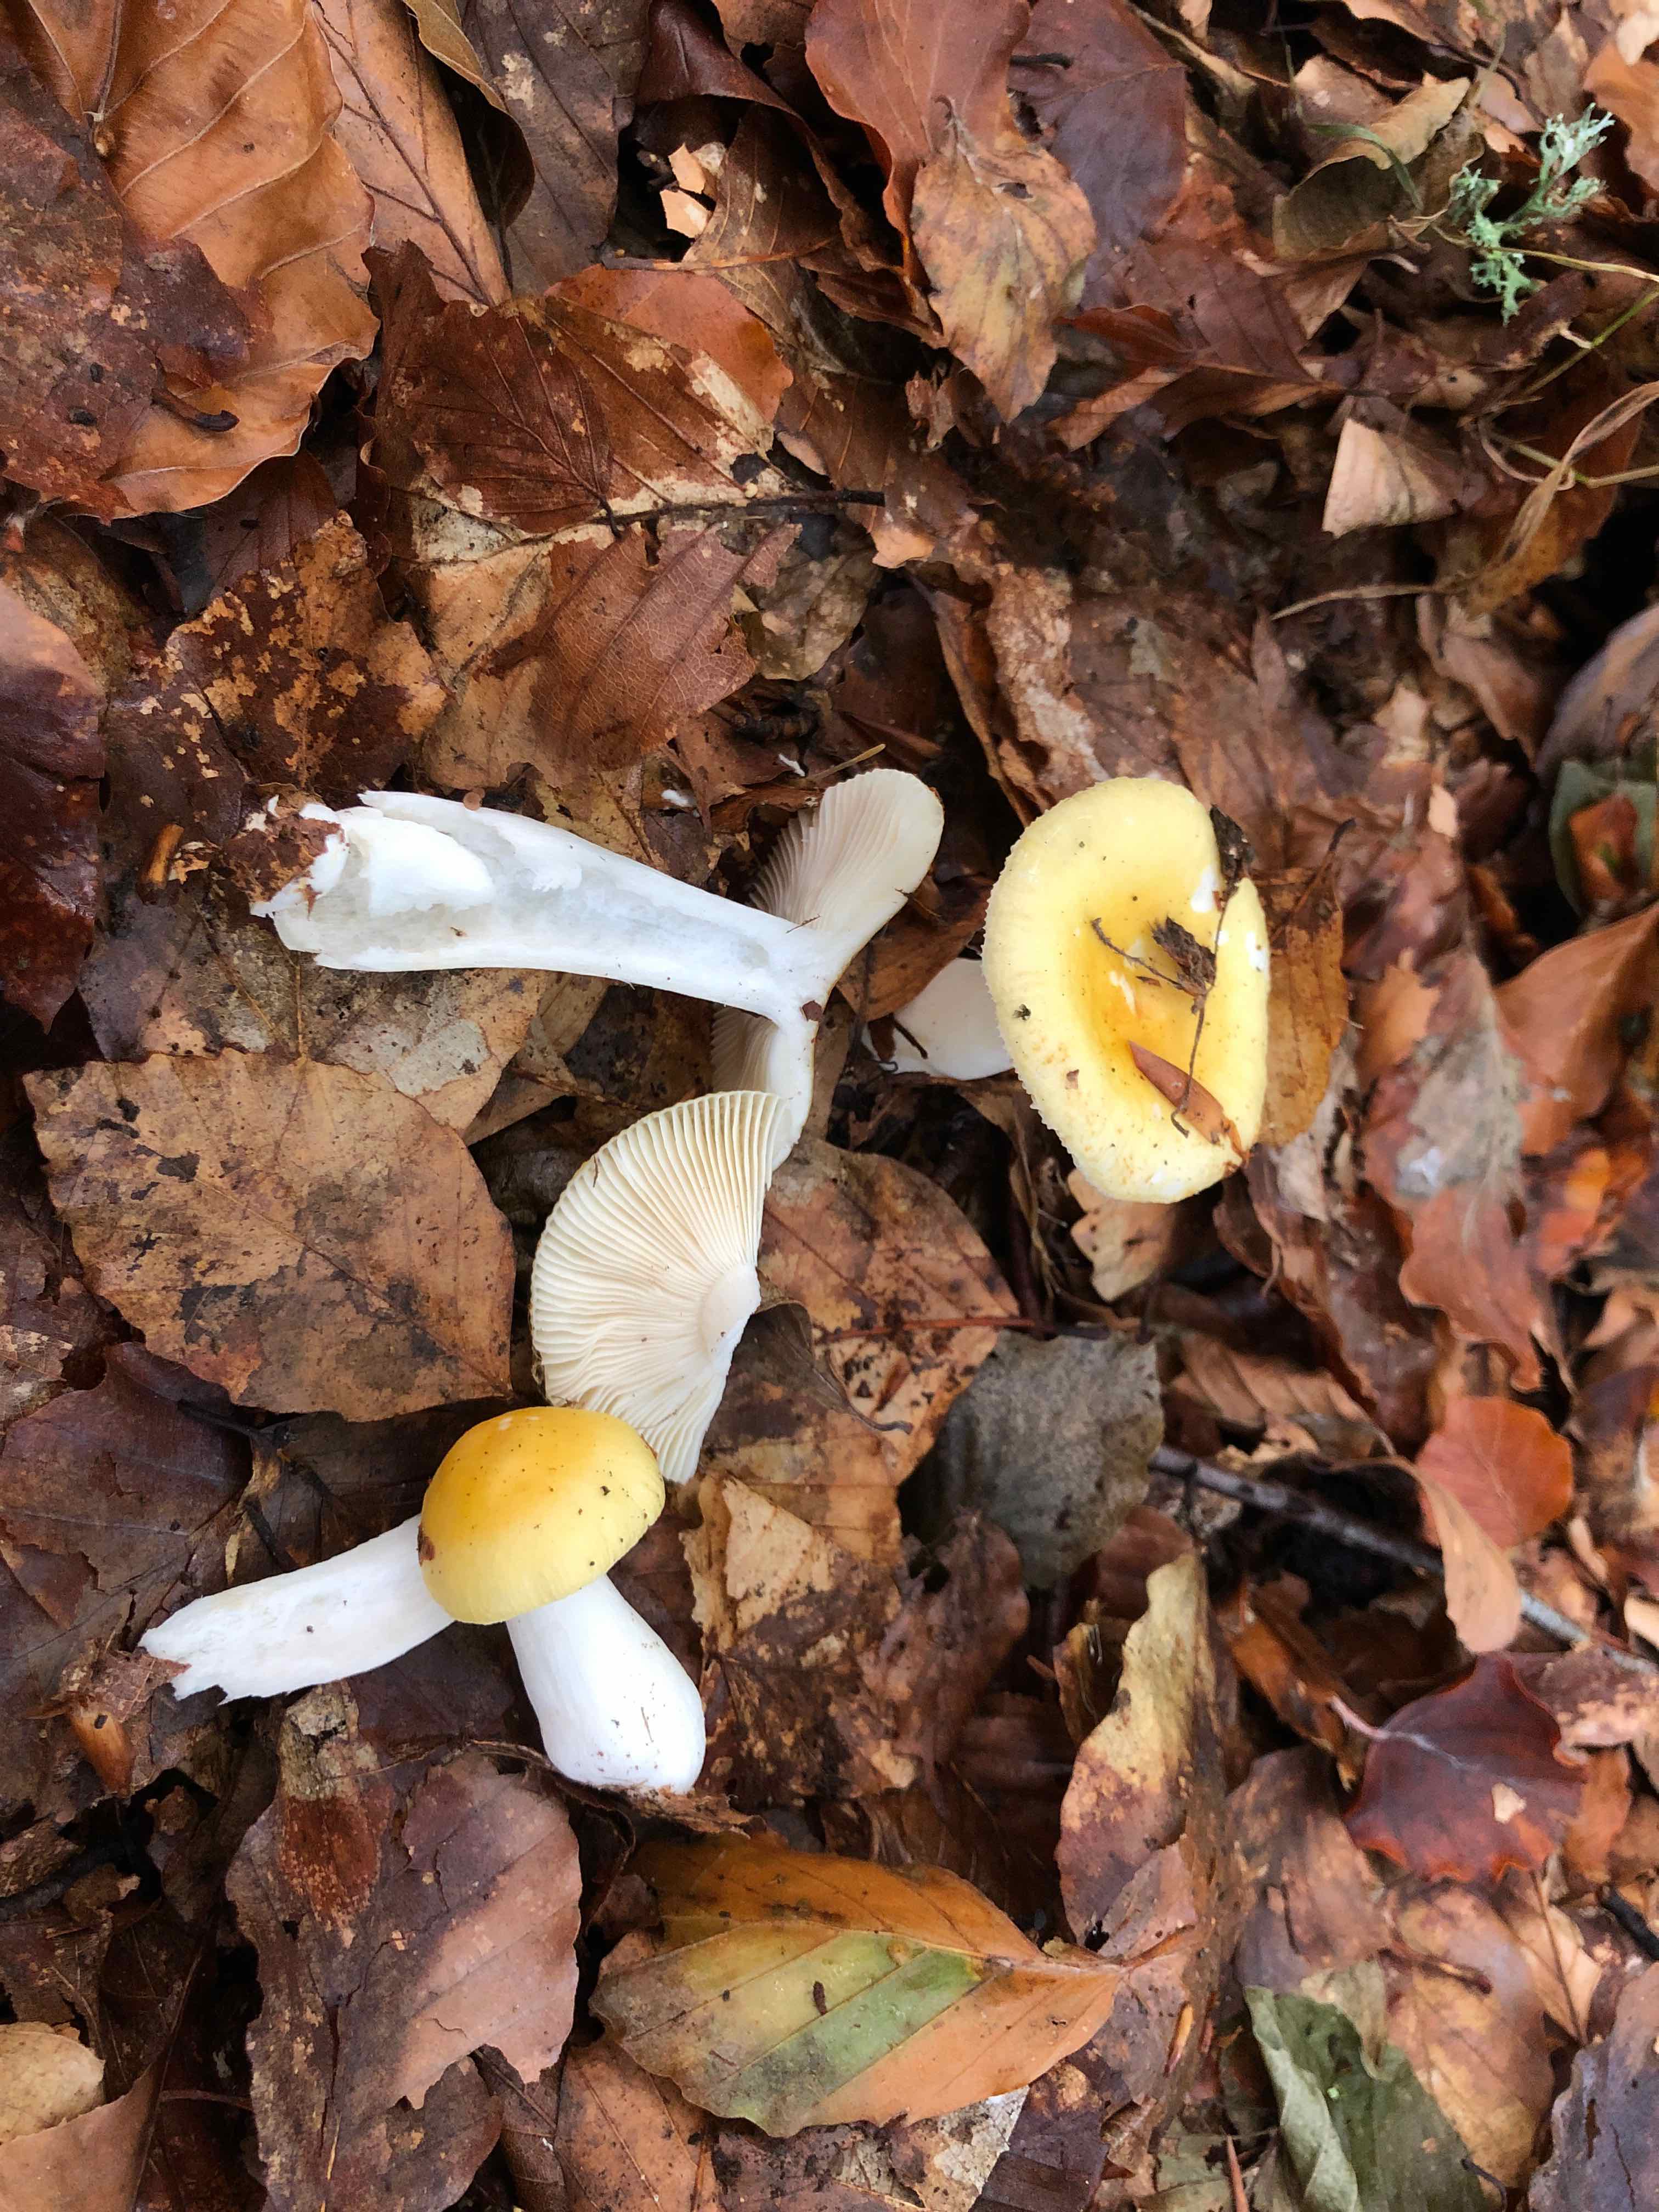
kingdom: Fungi
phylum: Basidiomycota
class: Agaricomycetes
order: Russulales
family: Russulaceae
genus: Russula
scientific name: Russula solaris
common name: sol-skørhat
